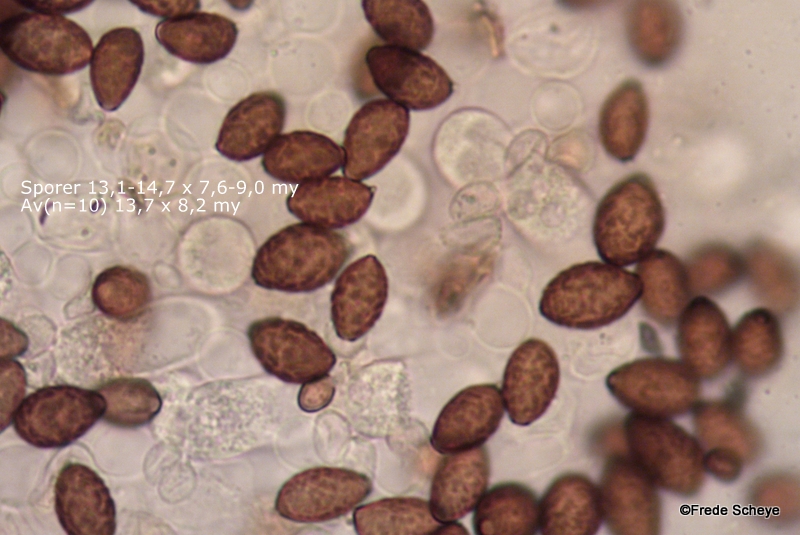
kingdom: Fungi
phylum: Basidiomycota
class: Agaricomycetes
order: Agaricales
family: Bolbitiaceae
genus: Panaeolina
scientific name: Panaeolina foenisecii
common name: høslætsvamp
